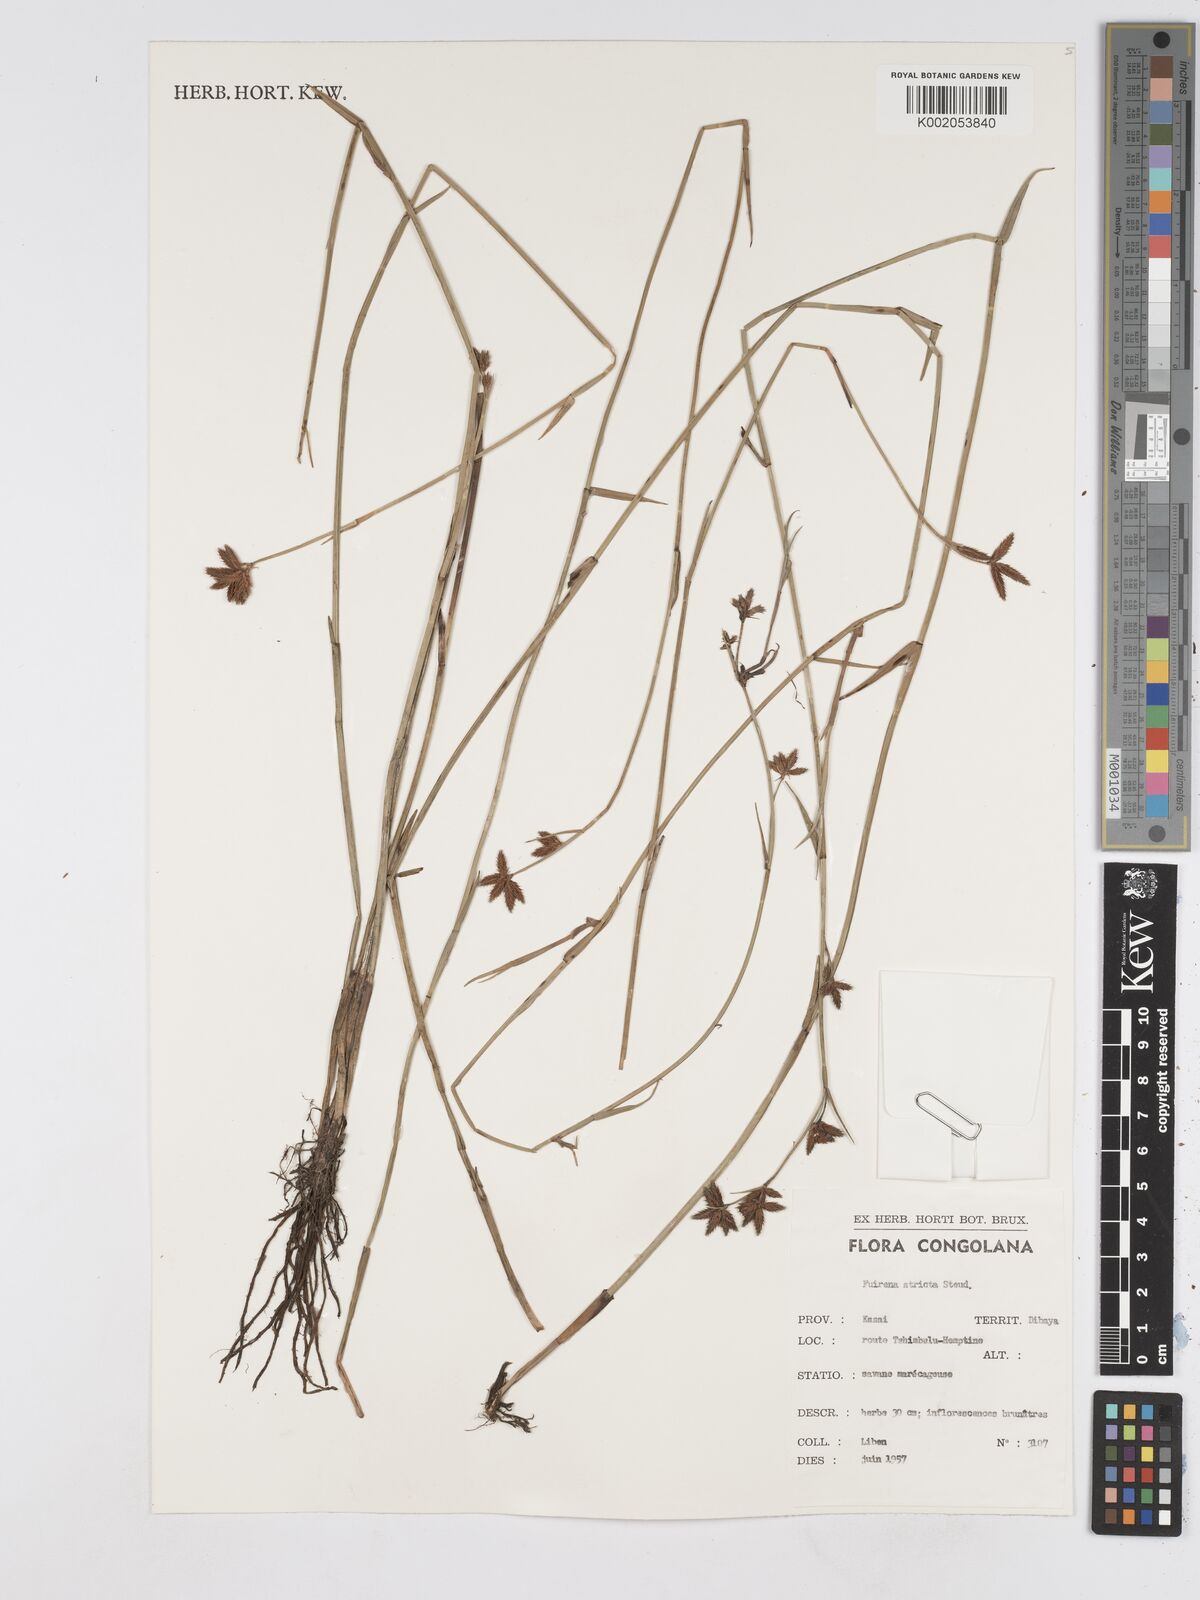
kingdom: Plantae
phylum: Tracheophyta
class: Liliopsida
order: Poales
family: Cyperaceae
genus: Fuirena
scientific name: Fuirena stricta
